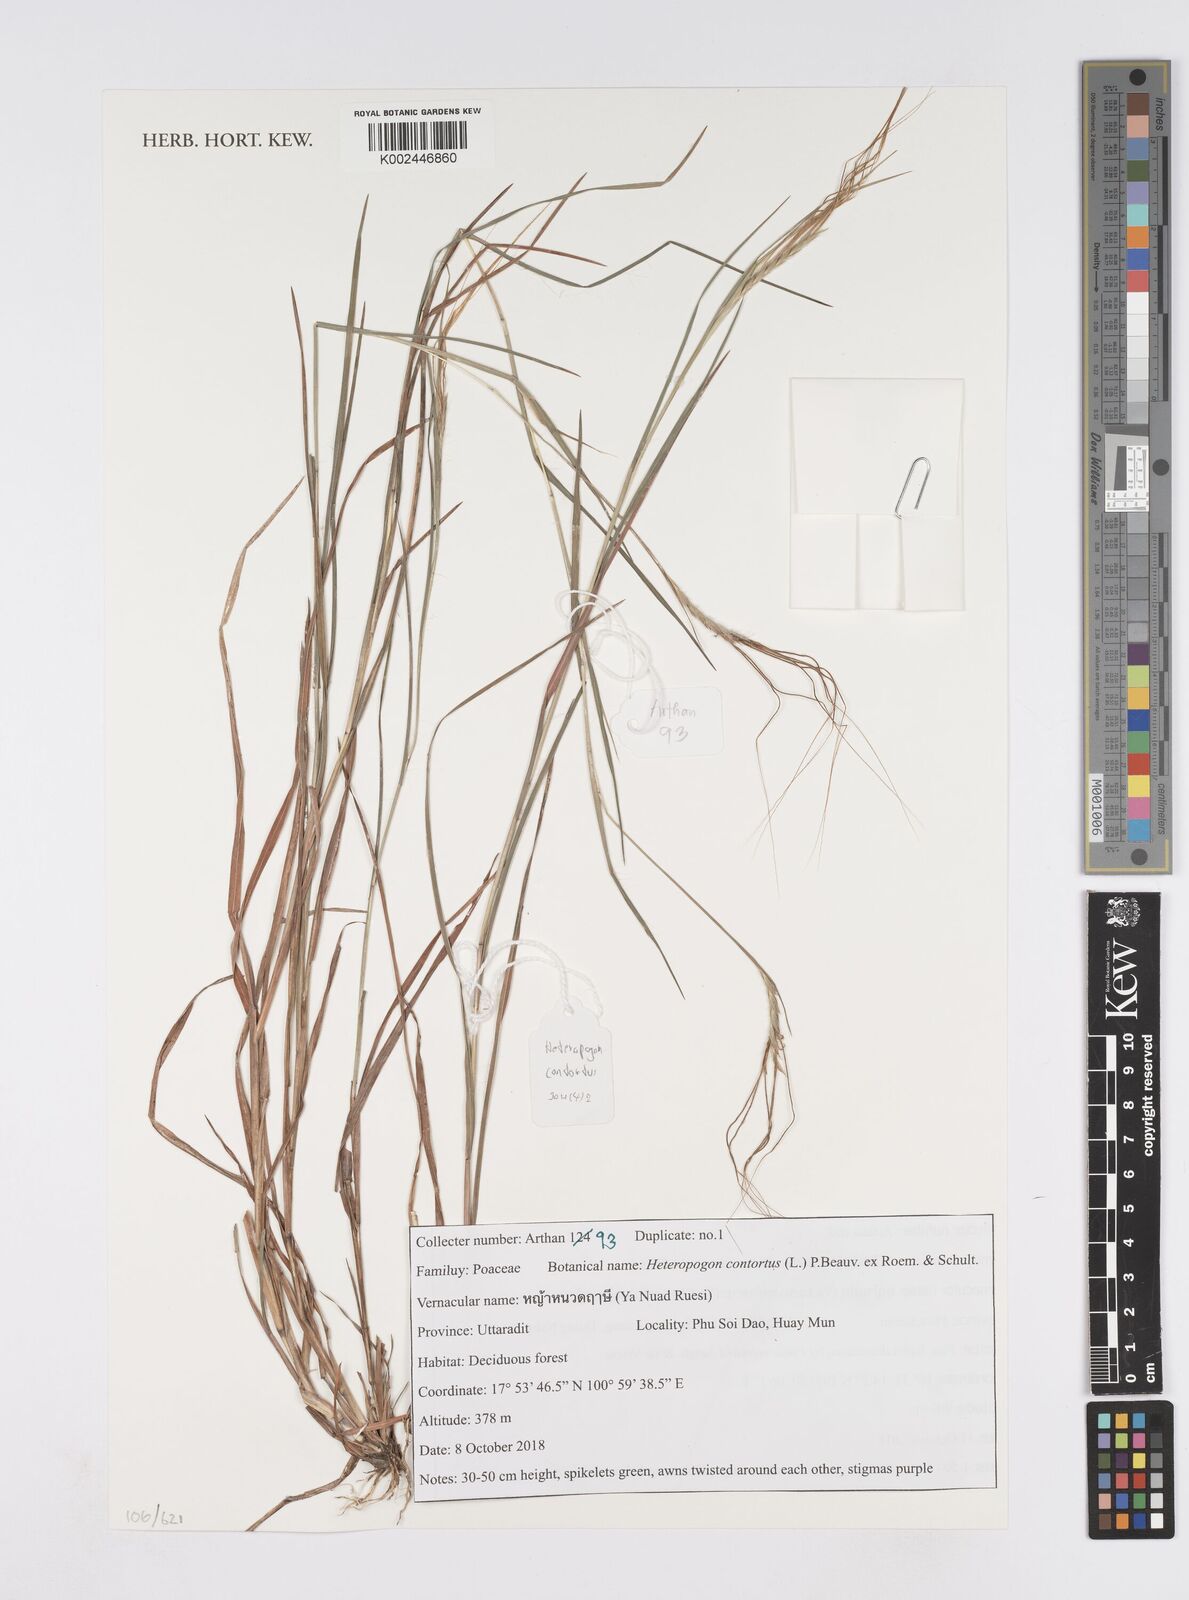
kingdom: Plantae
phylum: Tracheophyta
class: Liliopsida
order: Poales
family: Poaceae
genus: Heteropogon
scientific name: Heteropogon contortus
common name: Tanglehead
